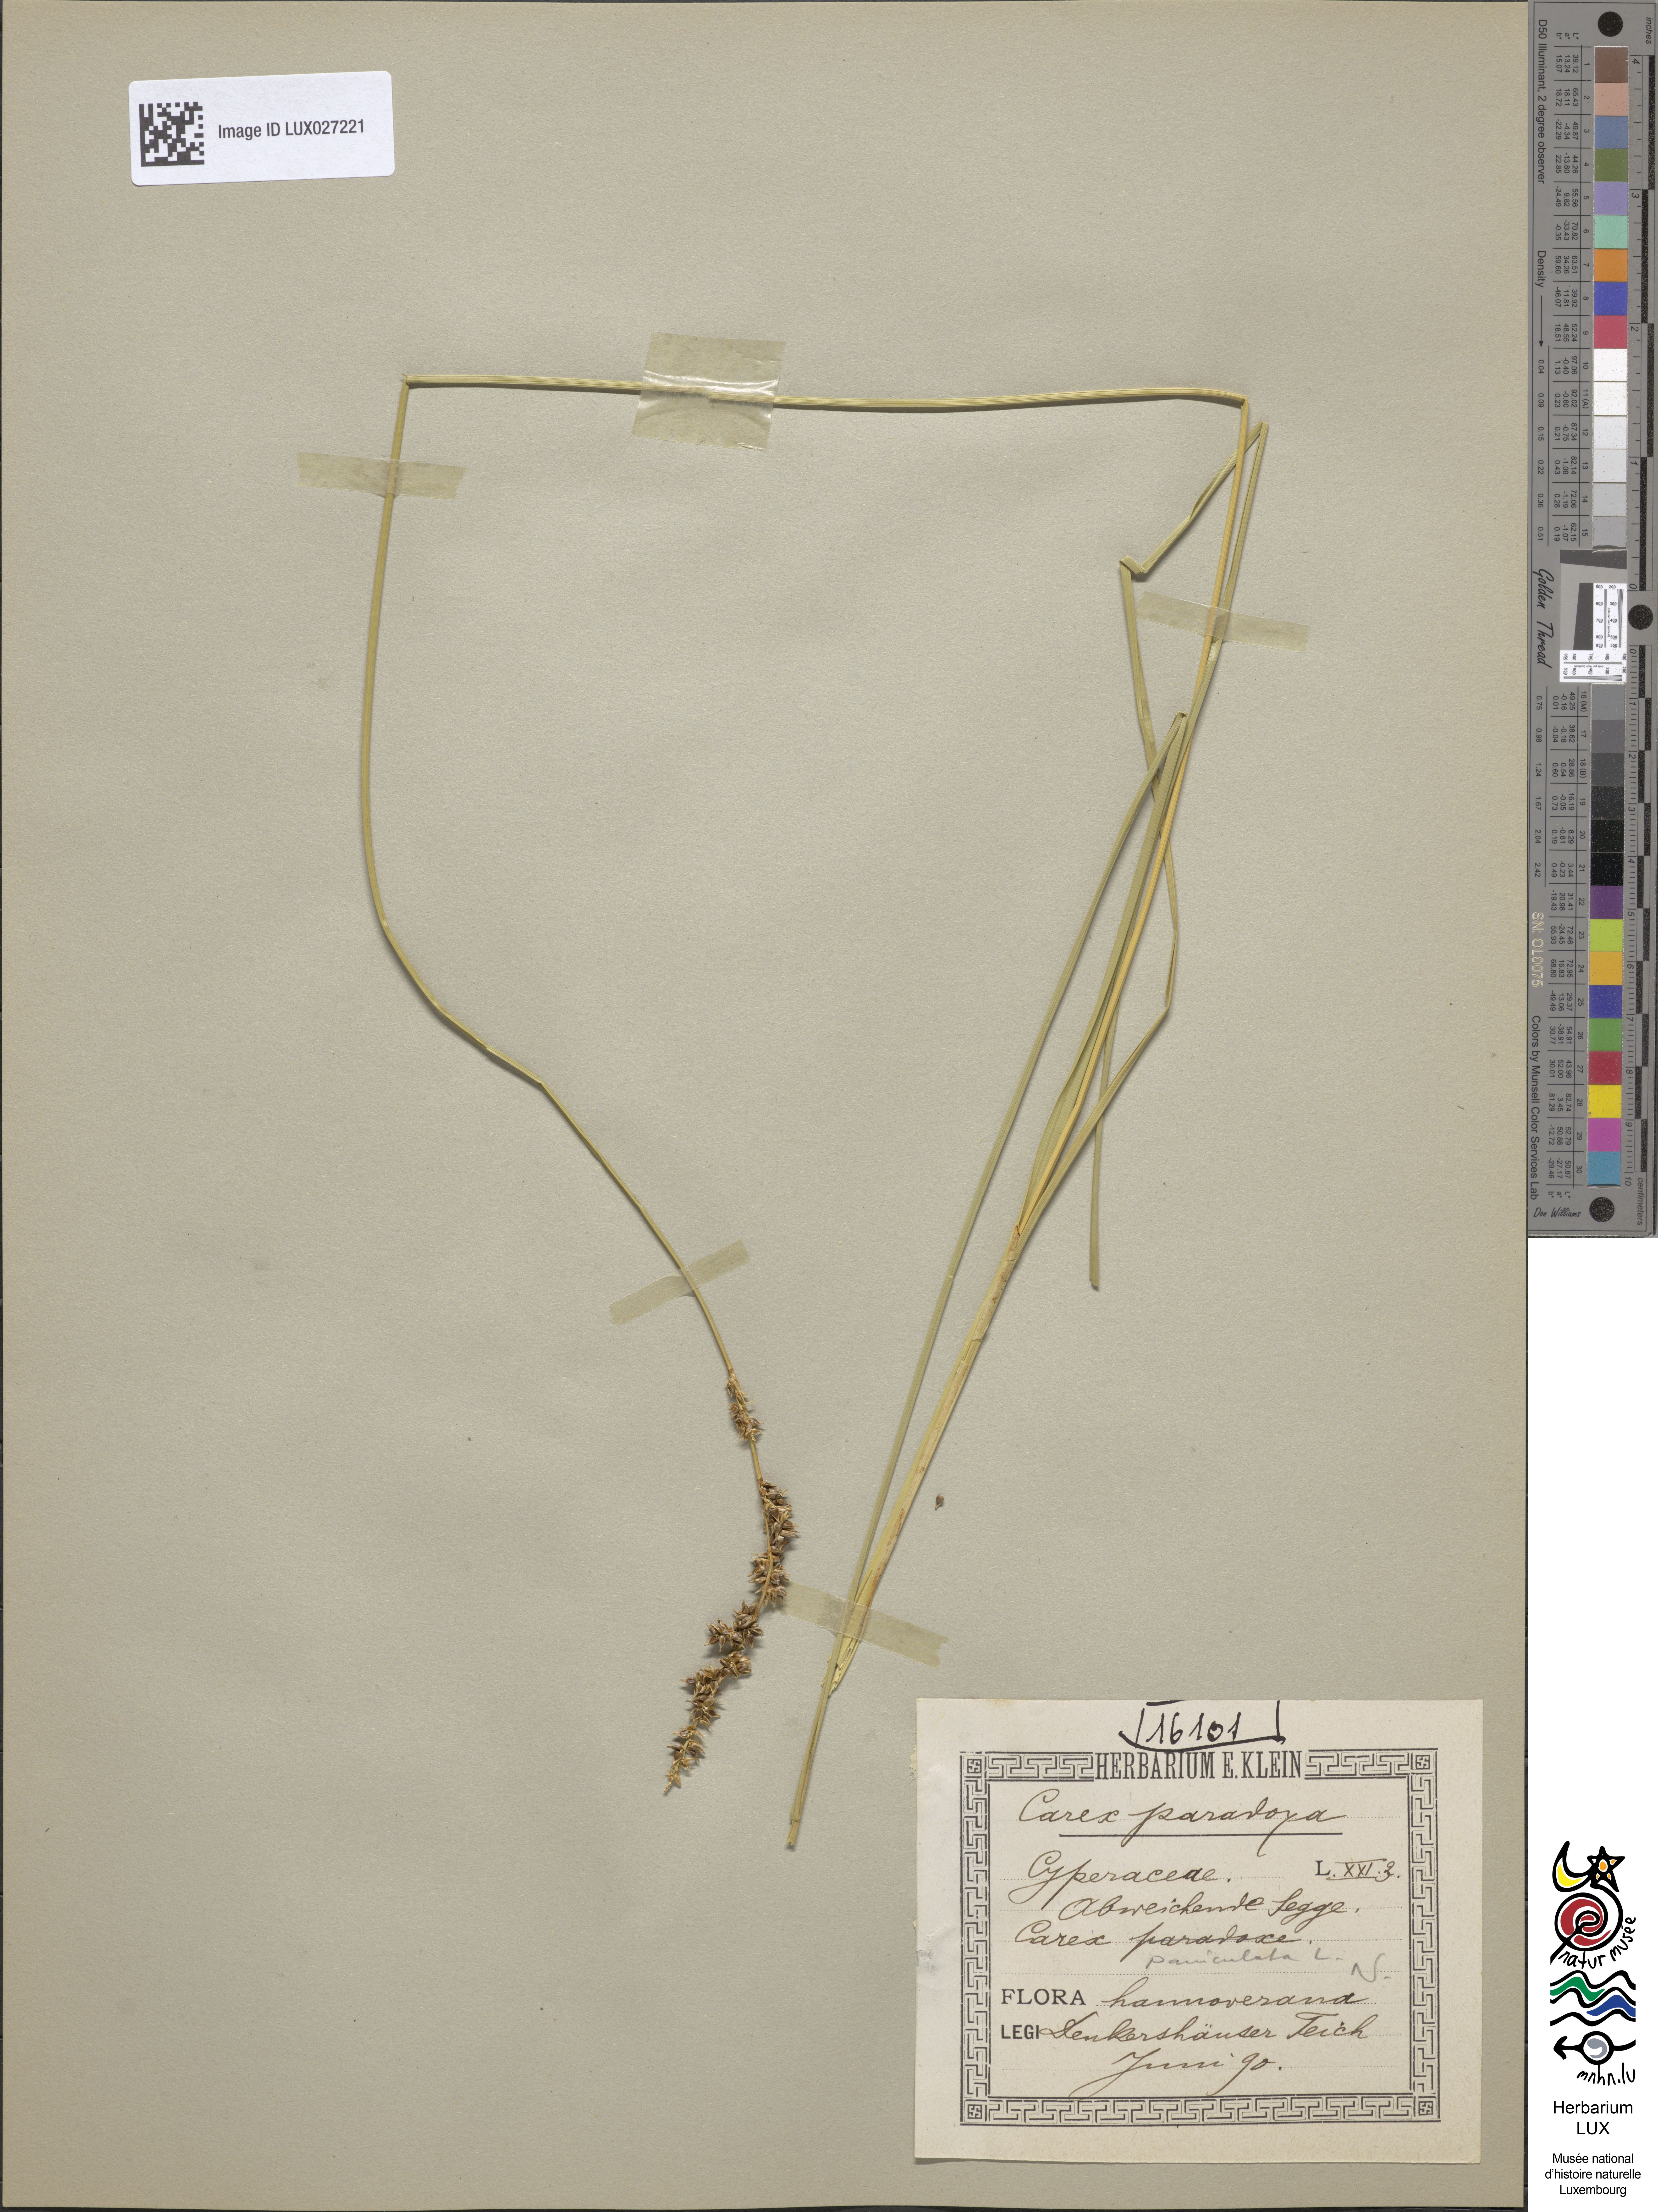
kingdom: Plantae
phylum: Tracheophyta
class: Liliopsida
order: Poales
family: Cyperaceae
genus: Carex
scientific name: Carex appropinquata
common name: Fibrous tussock-sedge
